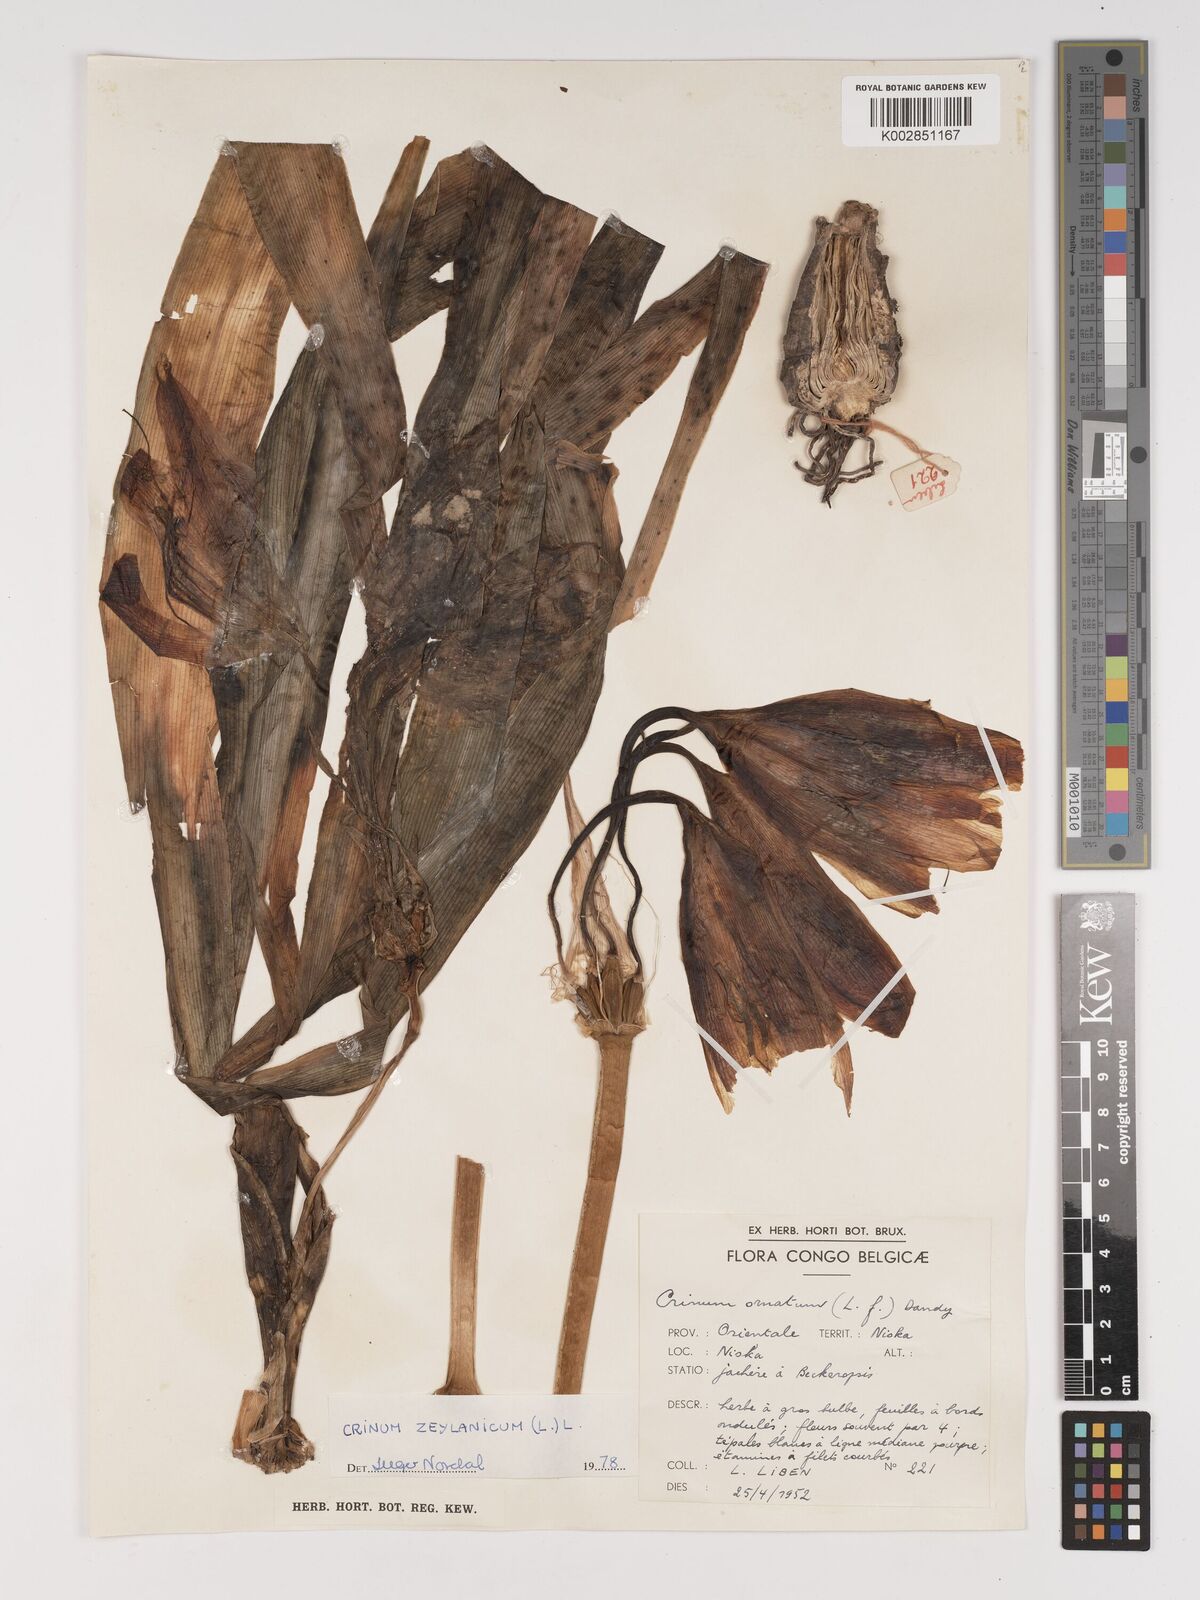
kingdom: Plantae
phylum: Tracheophyta
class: Liliopsida
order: Asparagales
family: Amaryllidaceae
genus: Crinum
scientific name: Crinum ornatum
